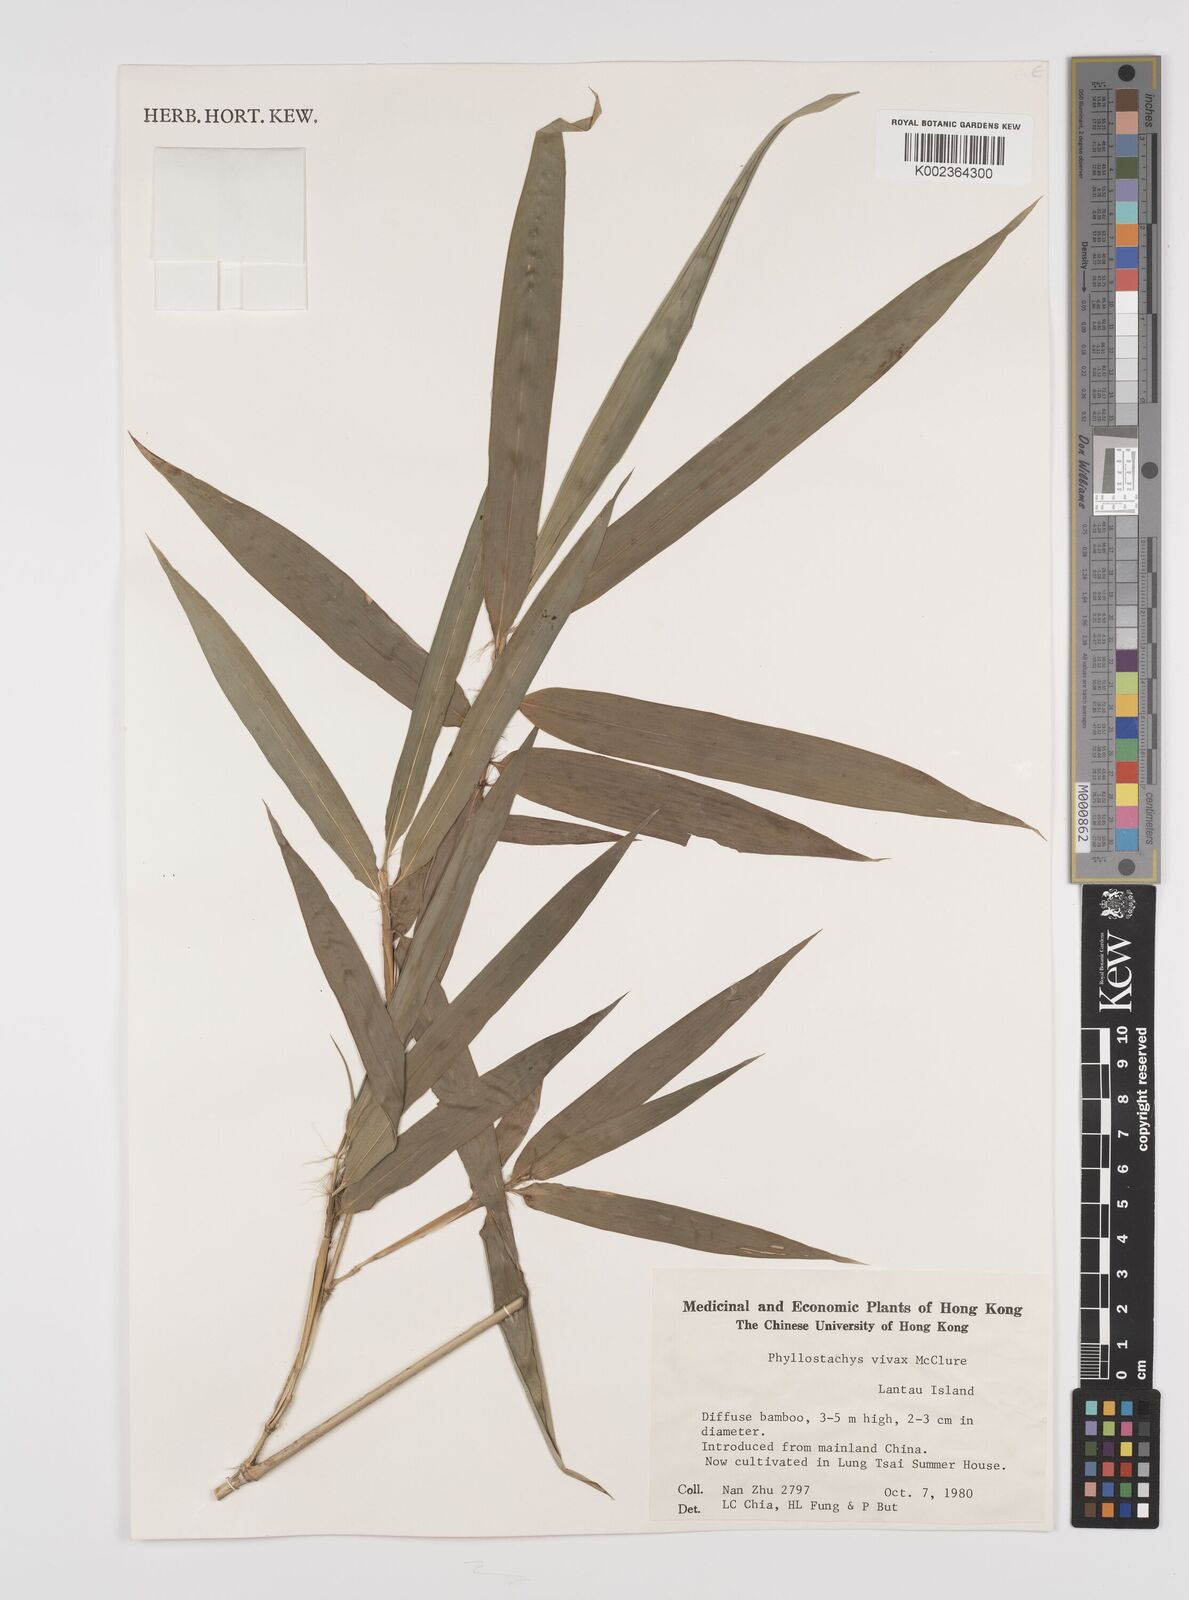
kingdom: Plantae
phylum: Tracheophyta
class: Liliopsida
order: Poales
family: Poaceae
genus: Phyllostachys
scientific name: Phyllostachys vivax
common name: Smooth-sheath bamboo
